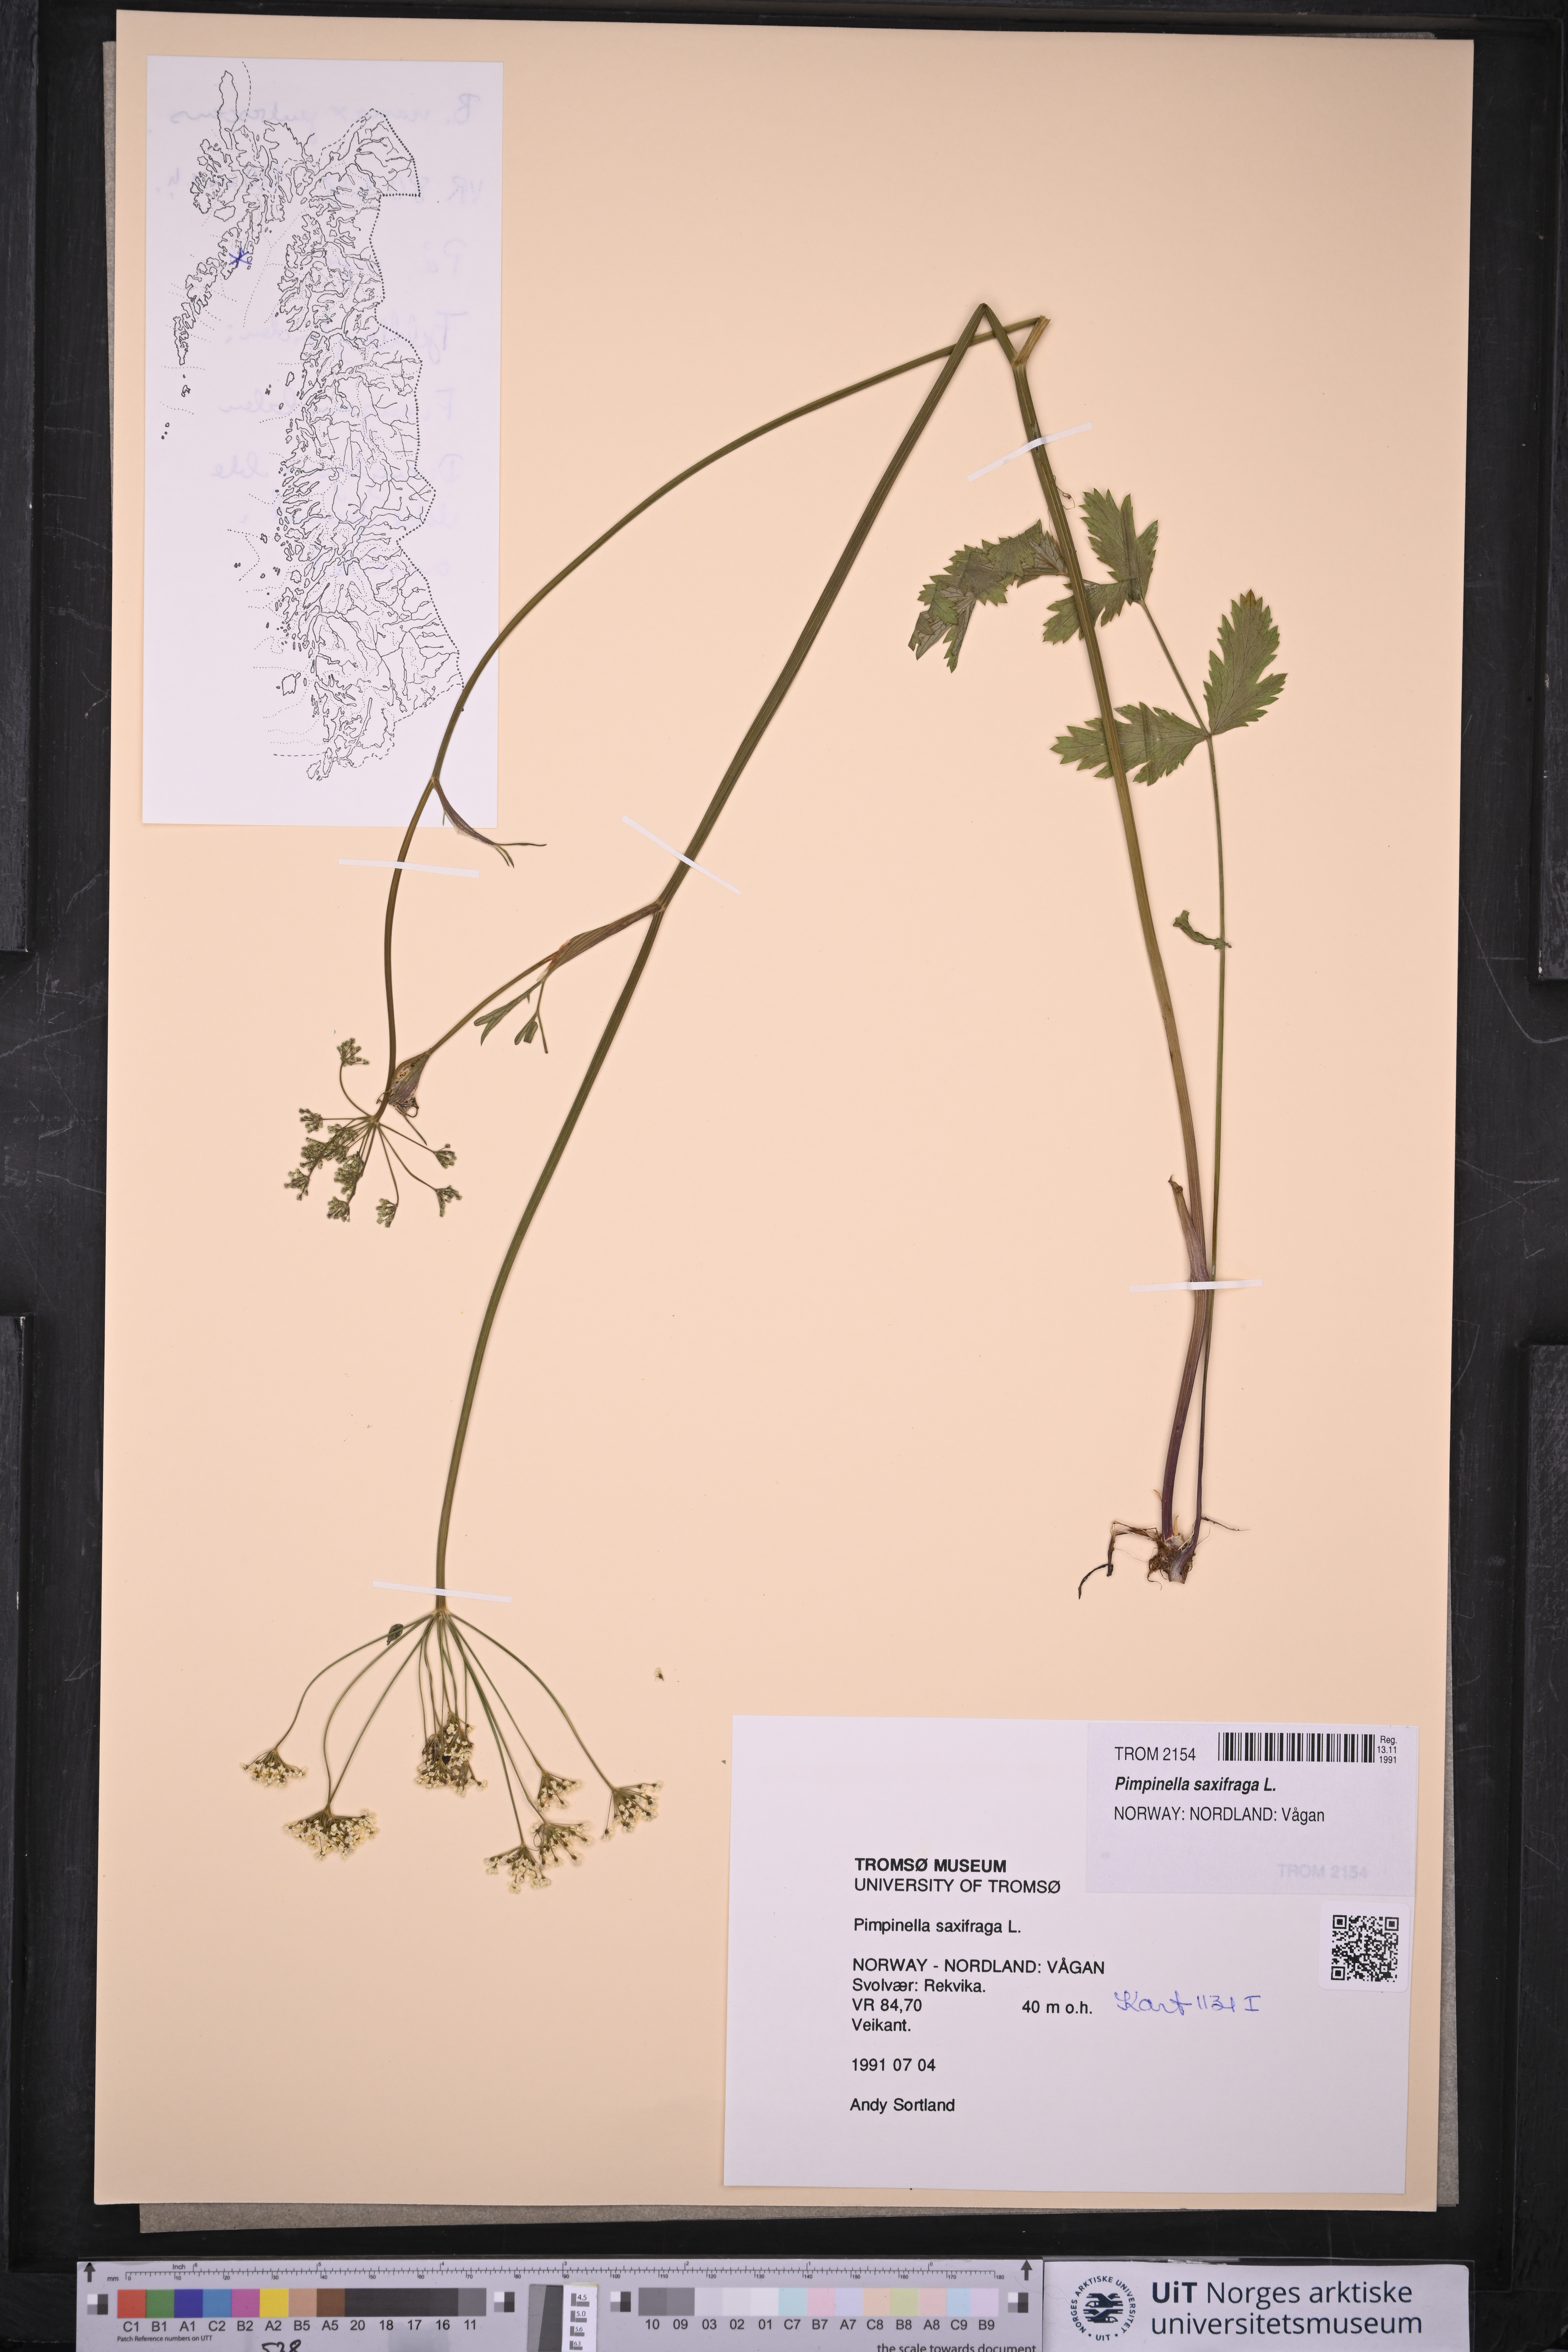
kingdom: Plantae
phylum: Tracheophyta
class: Magnoliopsida
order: Apiales
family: Apiaceae
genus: Pimpinella
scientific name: Pimpinella saxifraga
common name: Burnet-saxifrage
